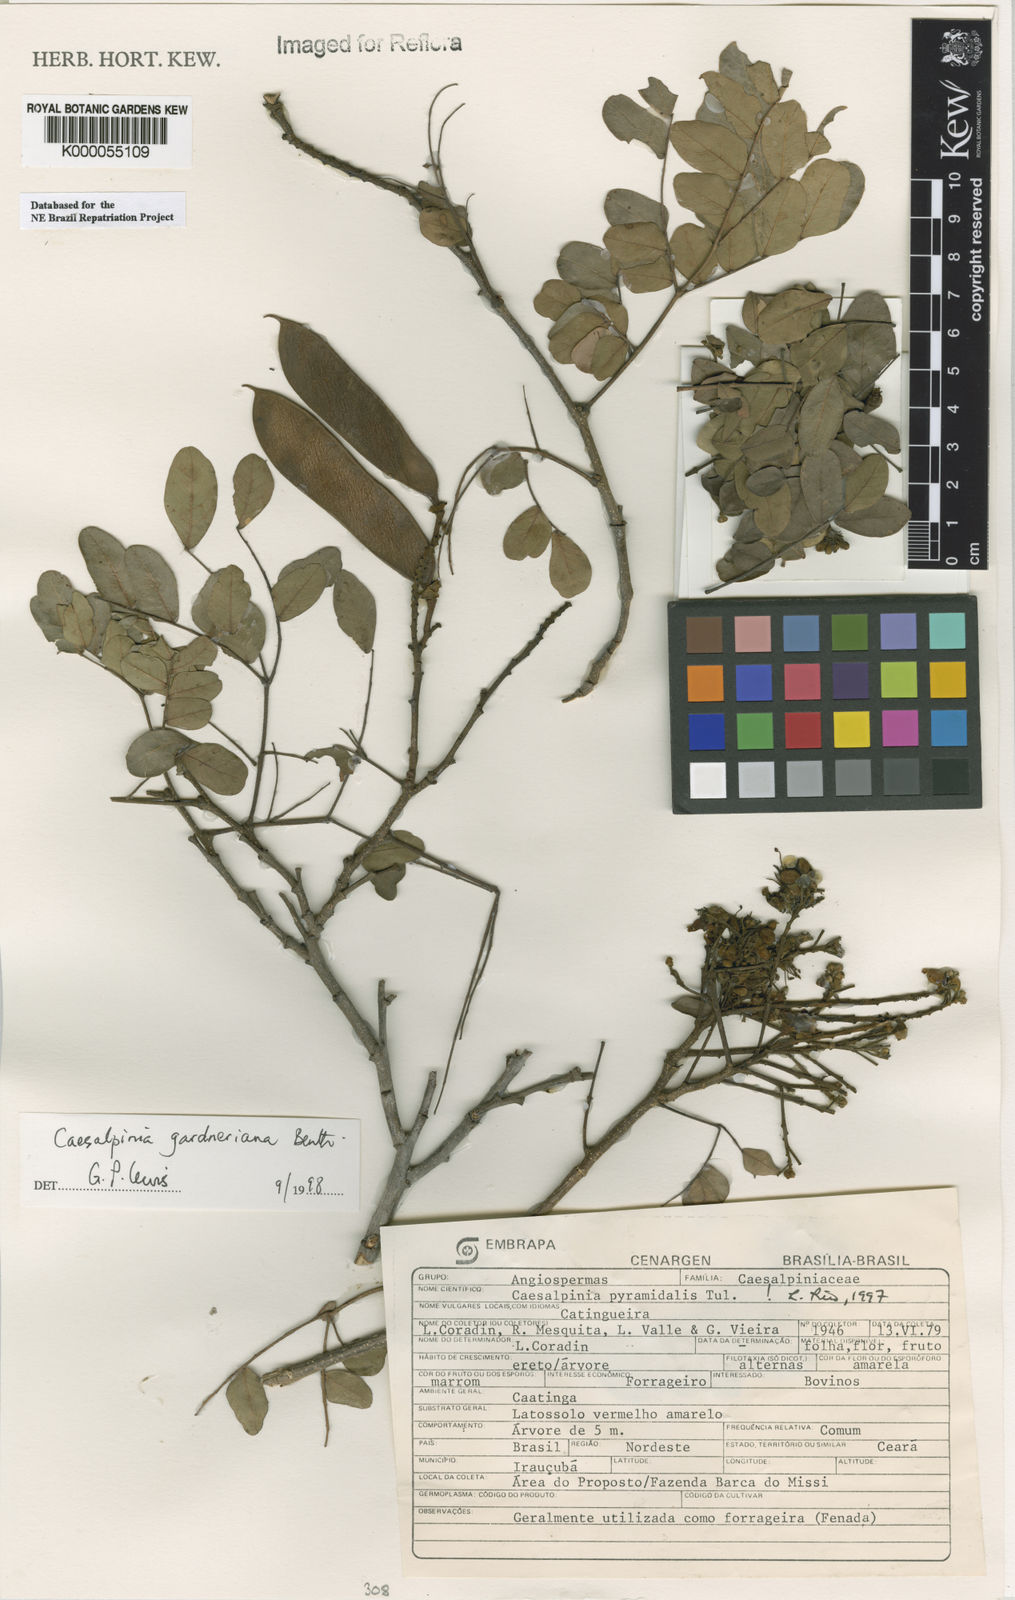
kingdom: Plantae
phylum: Tracheophyta
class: Magnoliopsida
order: Fabales
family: Fabaceae
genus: Cenostigma
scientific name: Cenostigma nordestinum
